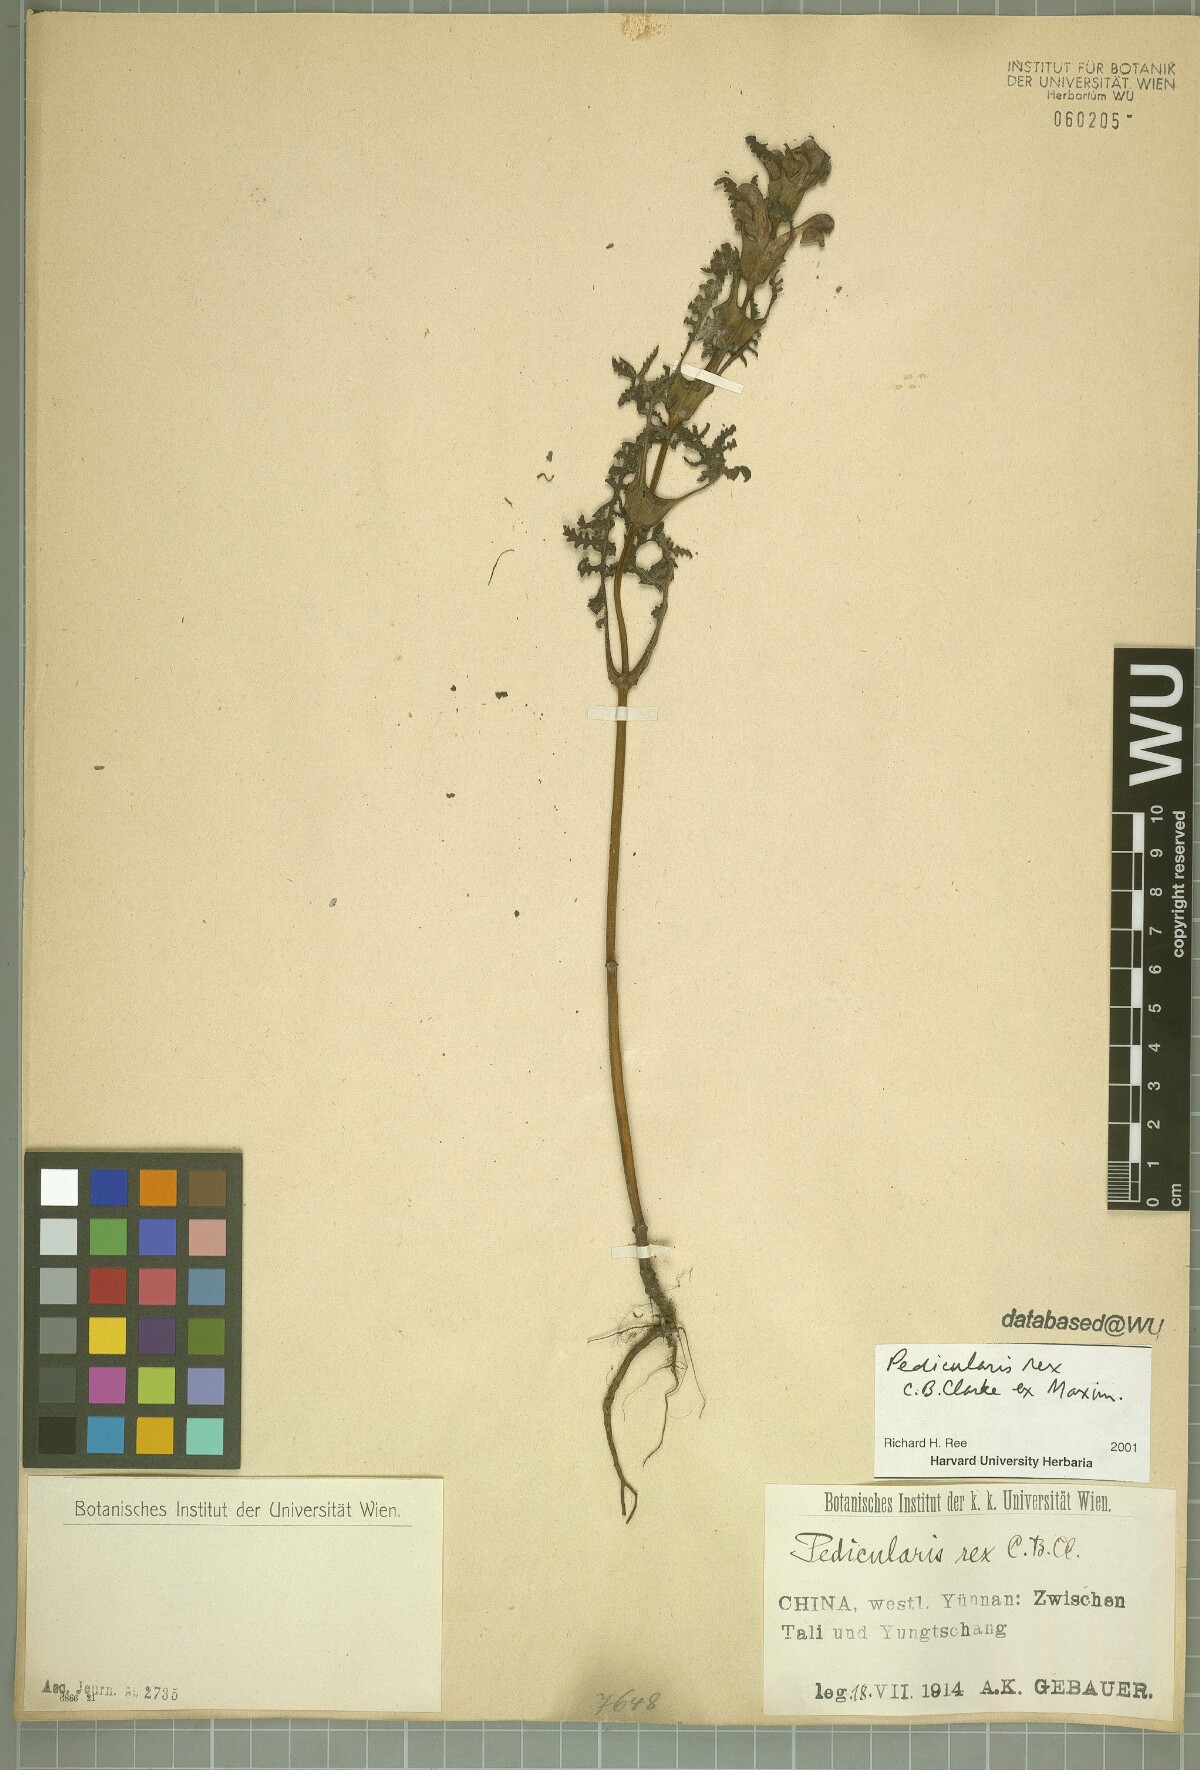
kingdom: Plantae
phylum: Tracheophyta
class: Magnoliopsida
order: Lamiales
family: Orobanchaceae
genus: Pedicularis
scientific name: Pedicularis rex
